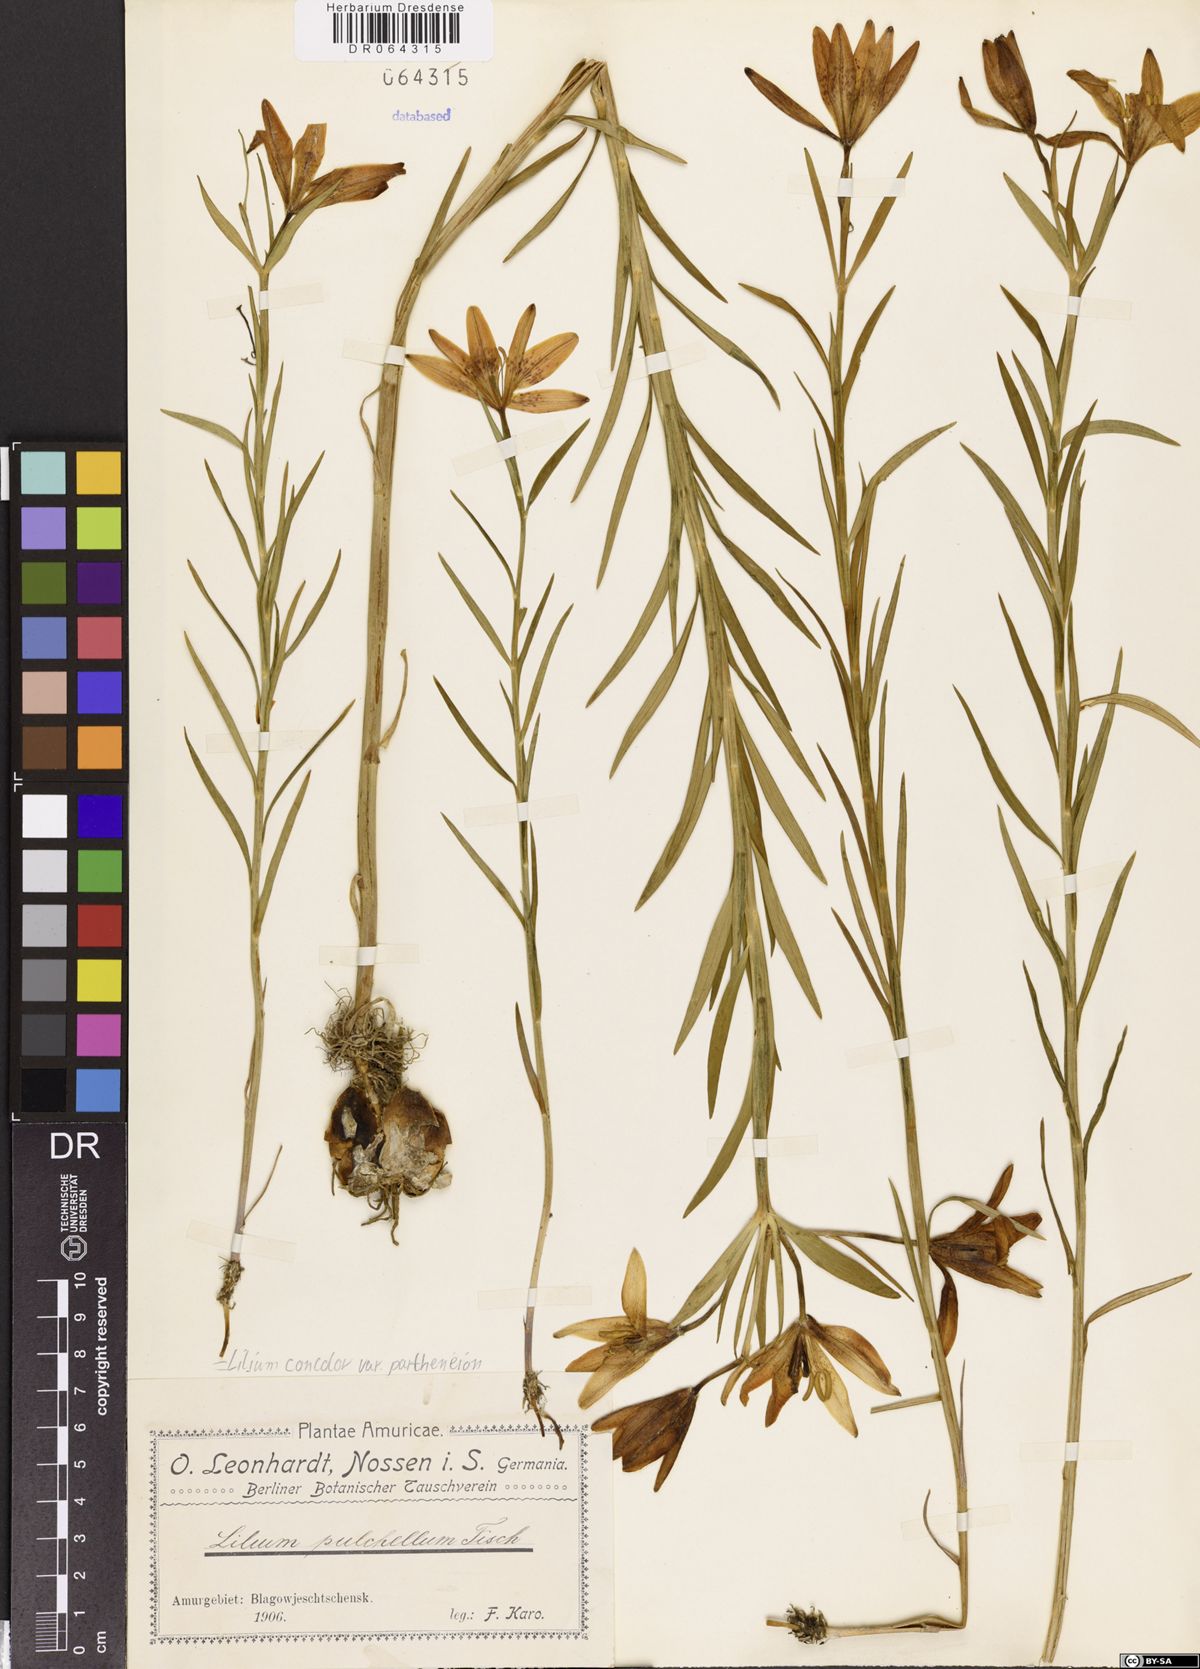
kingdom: Plantae
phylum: Tracheophyta
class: Liliopsida
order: Liliales
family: Liliaceae
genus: Lilium
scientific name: Lilium concolor
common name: Morning-star lily
